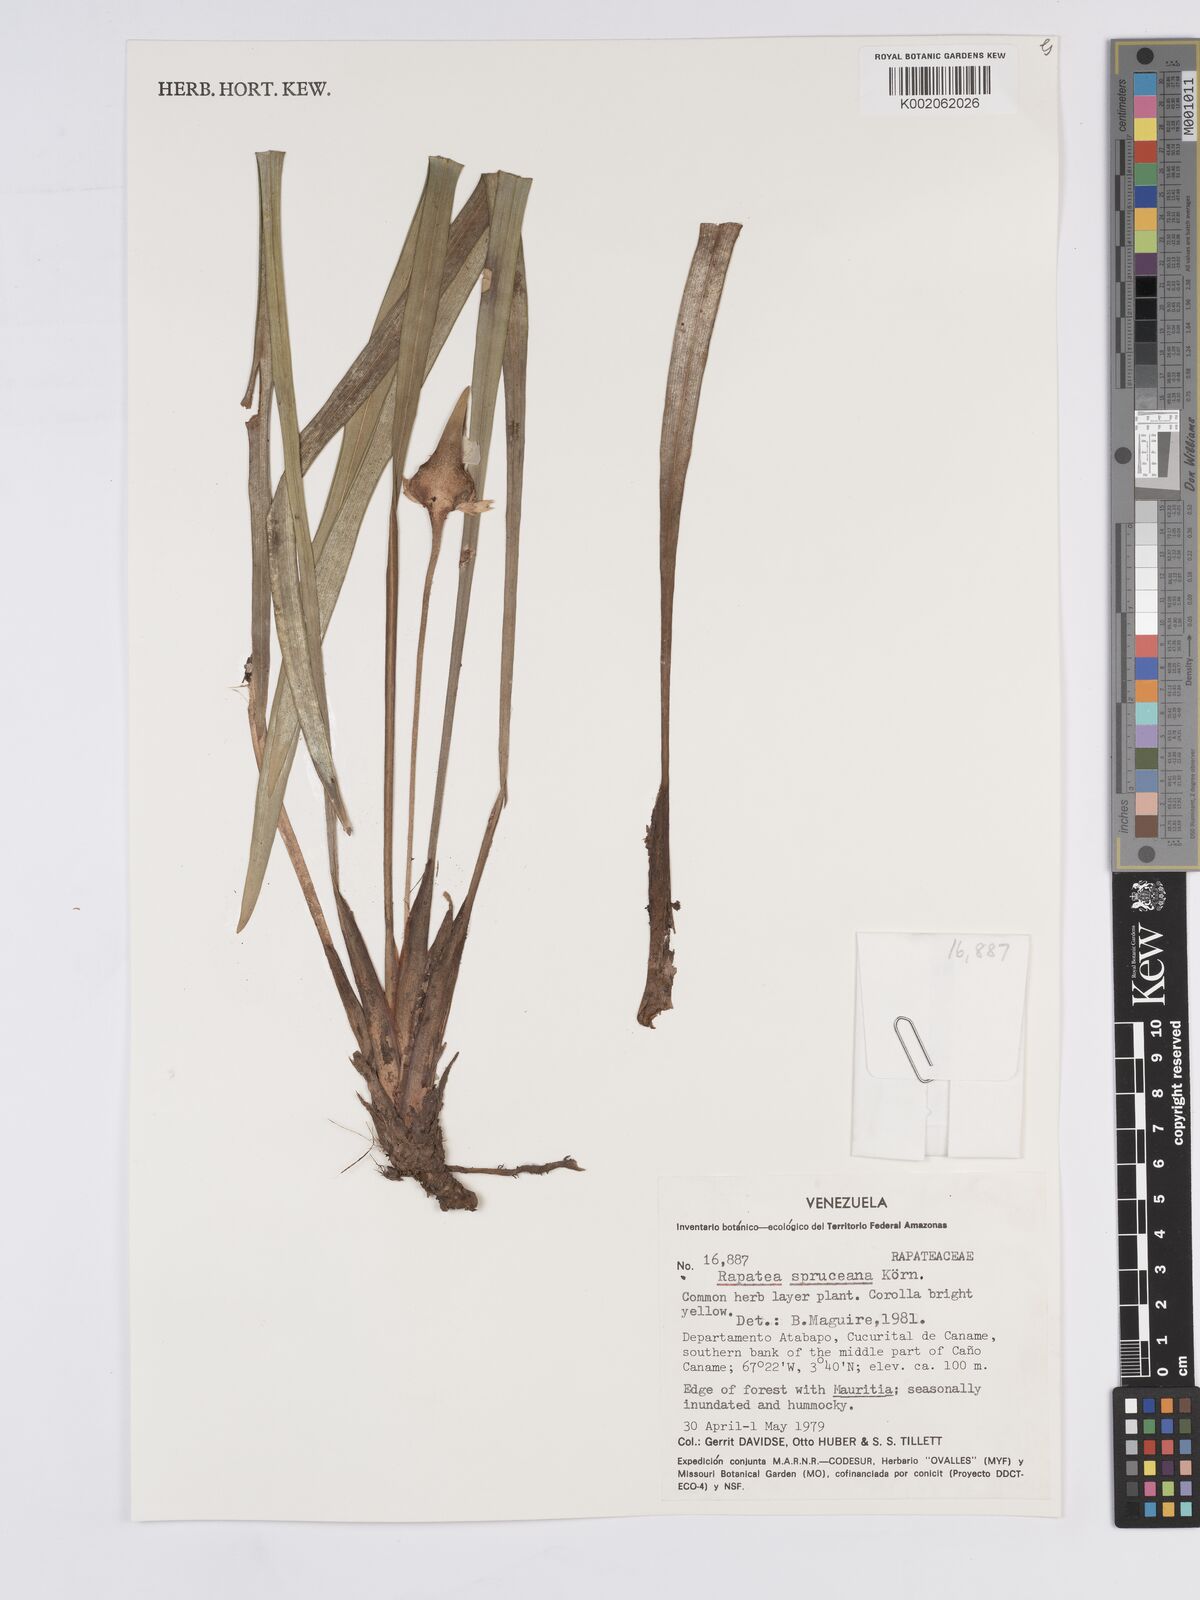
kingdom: Plantae
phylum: Tracheophyta
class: Liliopsida
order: Poales
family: Rapateaceae
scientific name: Rapateaceae
